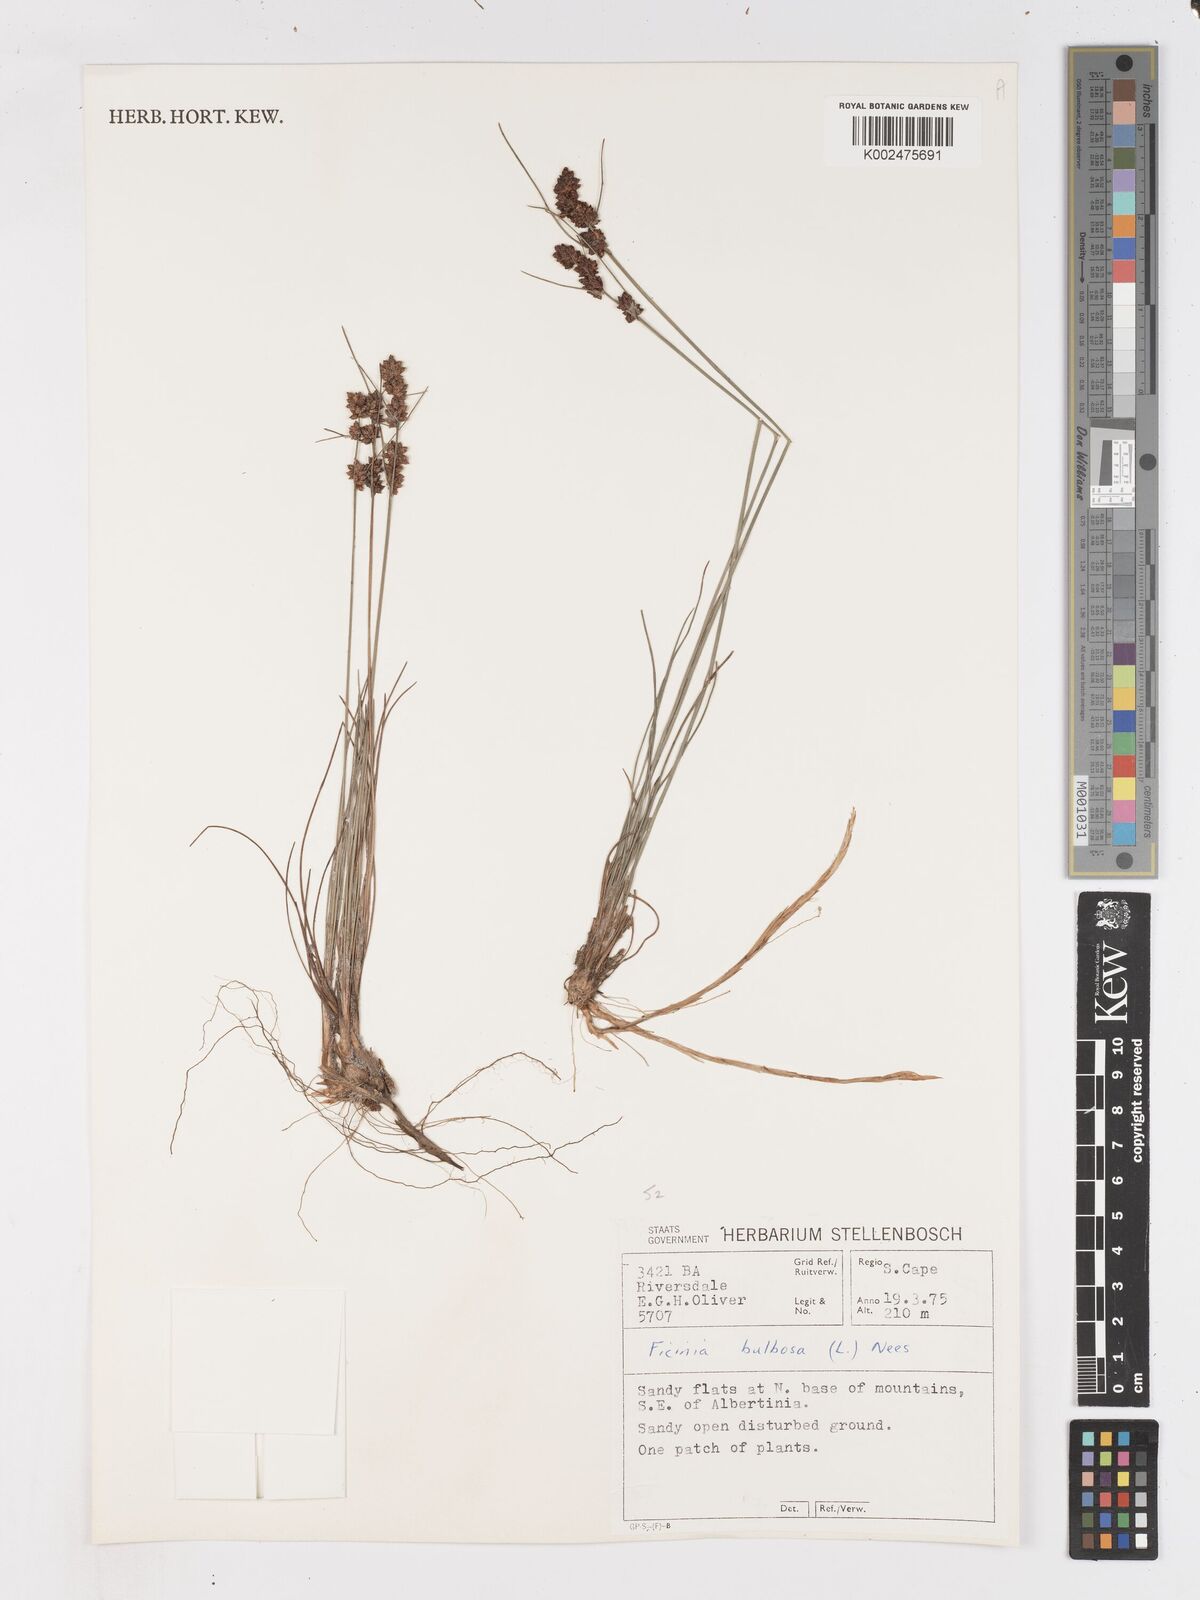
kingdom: Plantae
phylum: Tracheophyta
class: Liliopsida
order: Poales
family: Cyperaceae
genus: Ficinia
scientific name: Ficinia bulbosa
